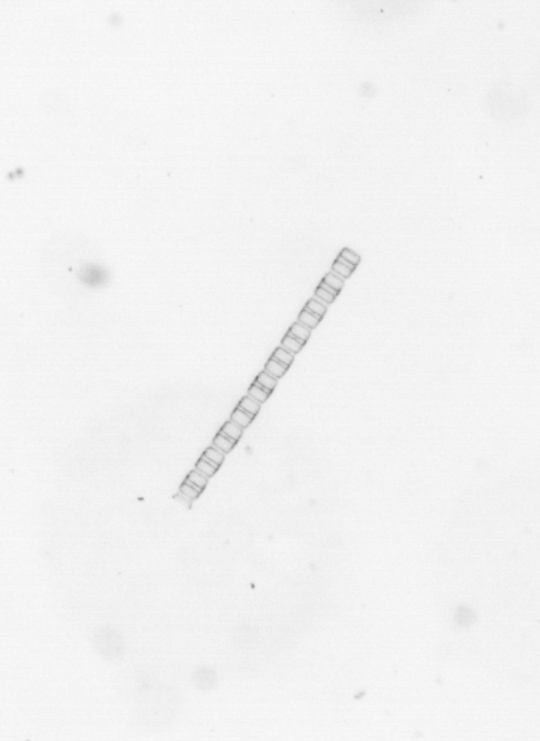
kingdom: Chromista
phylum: Ochrophyta
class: Bacillariophyceae
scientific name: Bacillariophyceae
